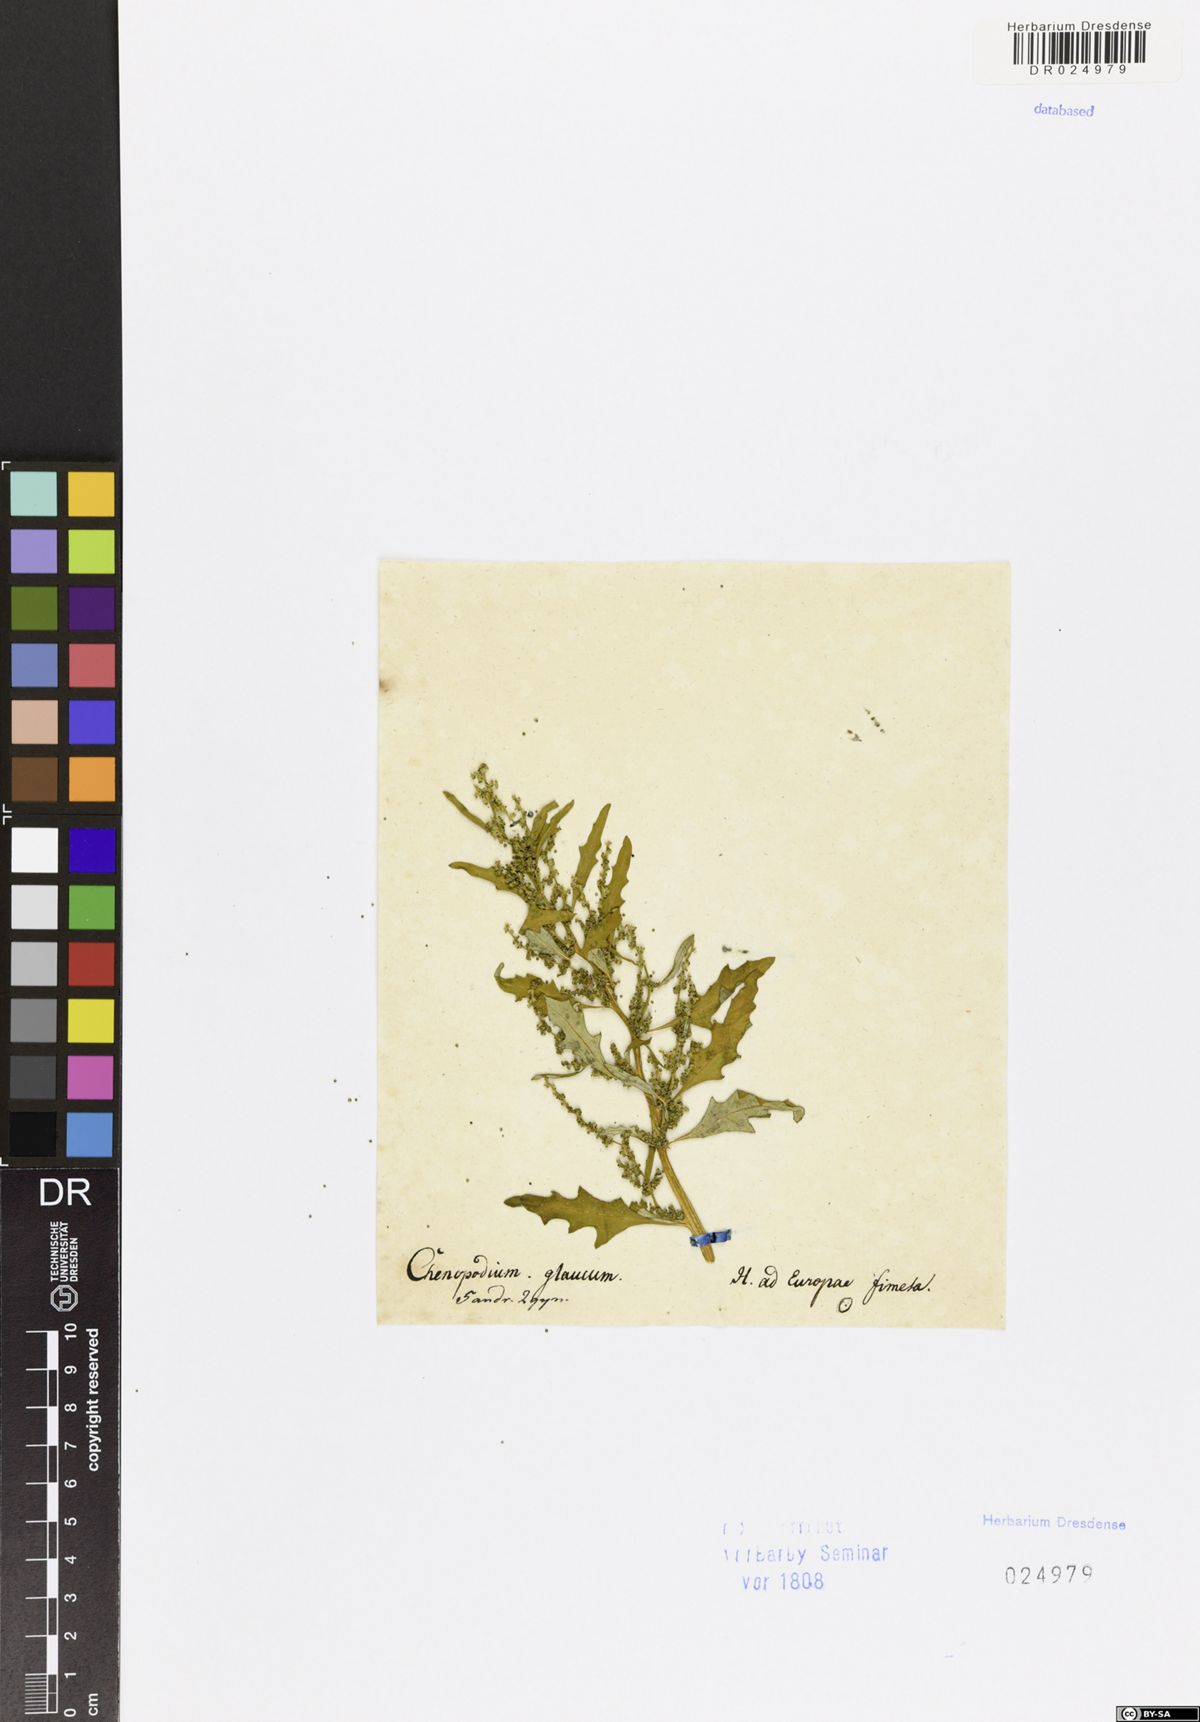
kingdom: Plantae
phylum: Tracheophyta
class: Magnoliopsida
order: Caryophyllales
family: Amaranthaceae
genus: Oxybasis
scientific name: Oxybasis glauca
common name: Glaucous goosefoot
